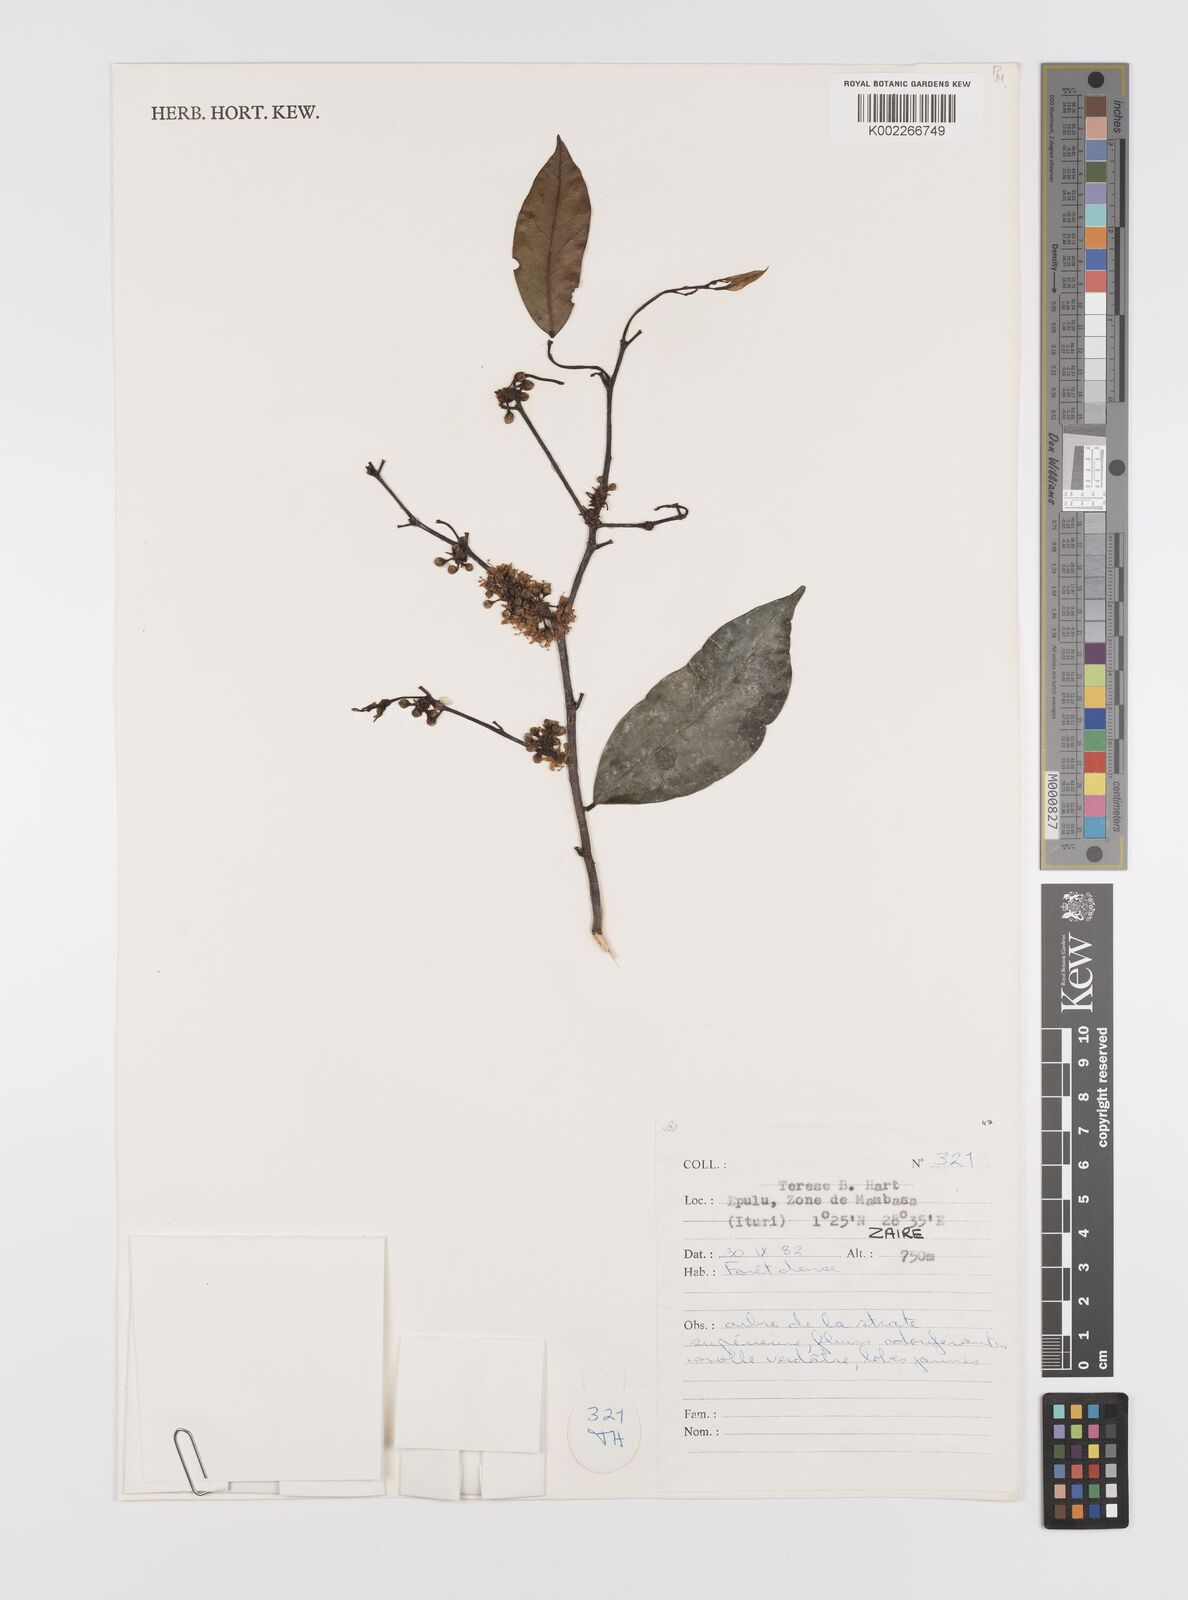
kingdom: Plantae
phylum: Tracheophyta
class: Magnoliopsida
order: Celastrales
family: Celastraceae
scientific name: Celastraceae
